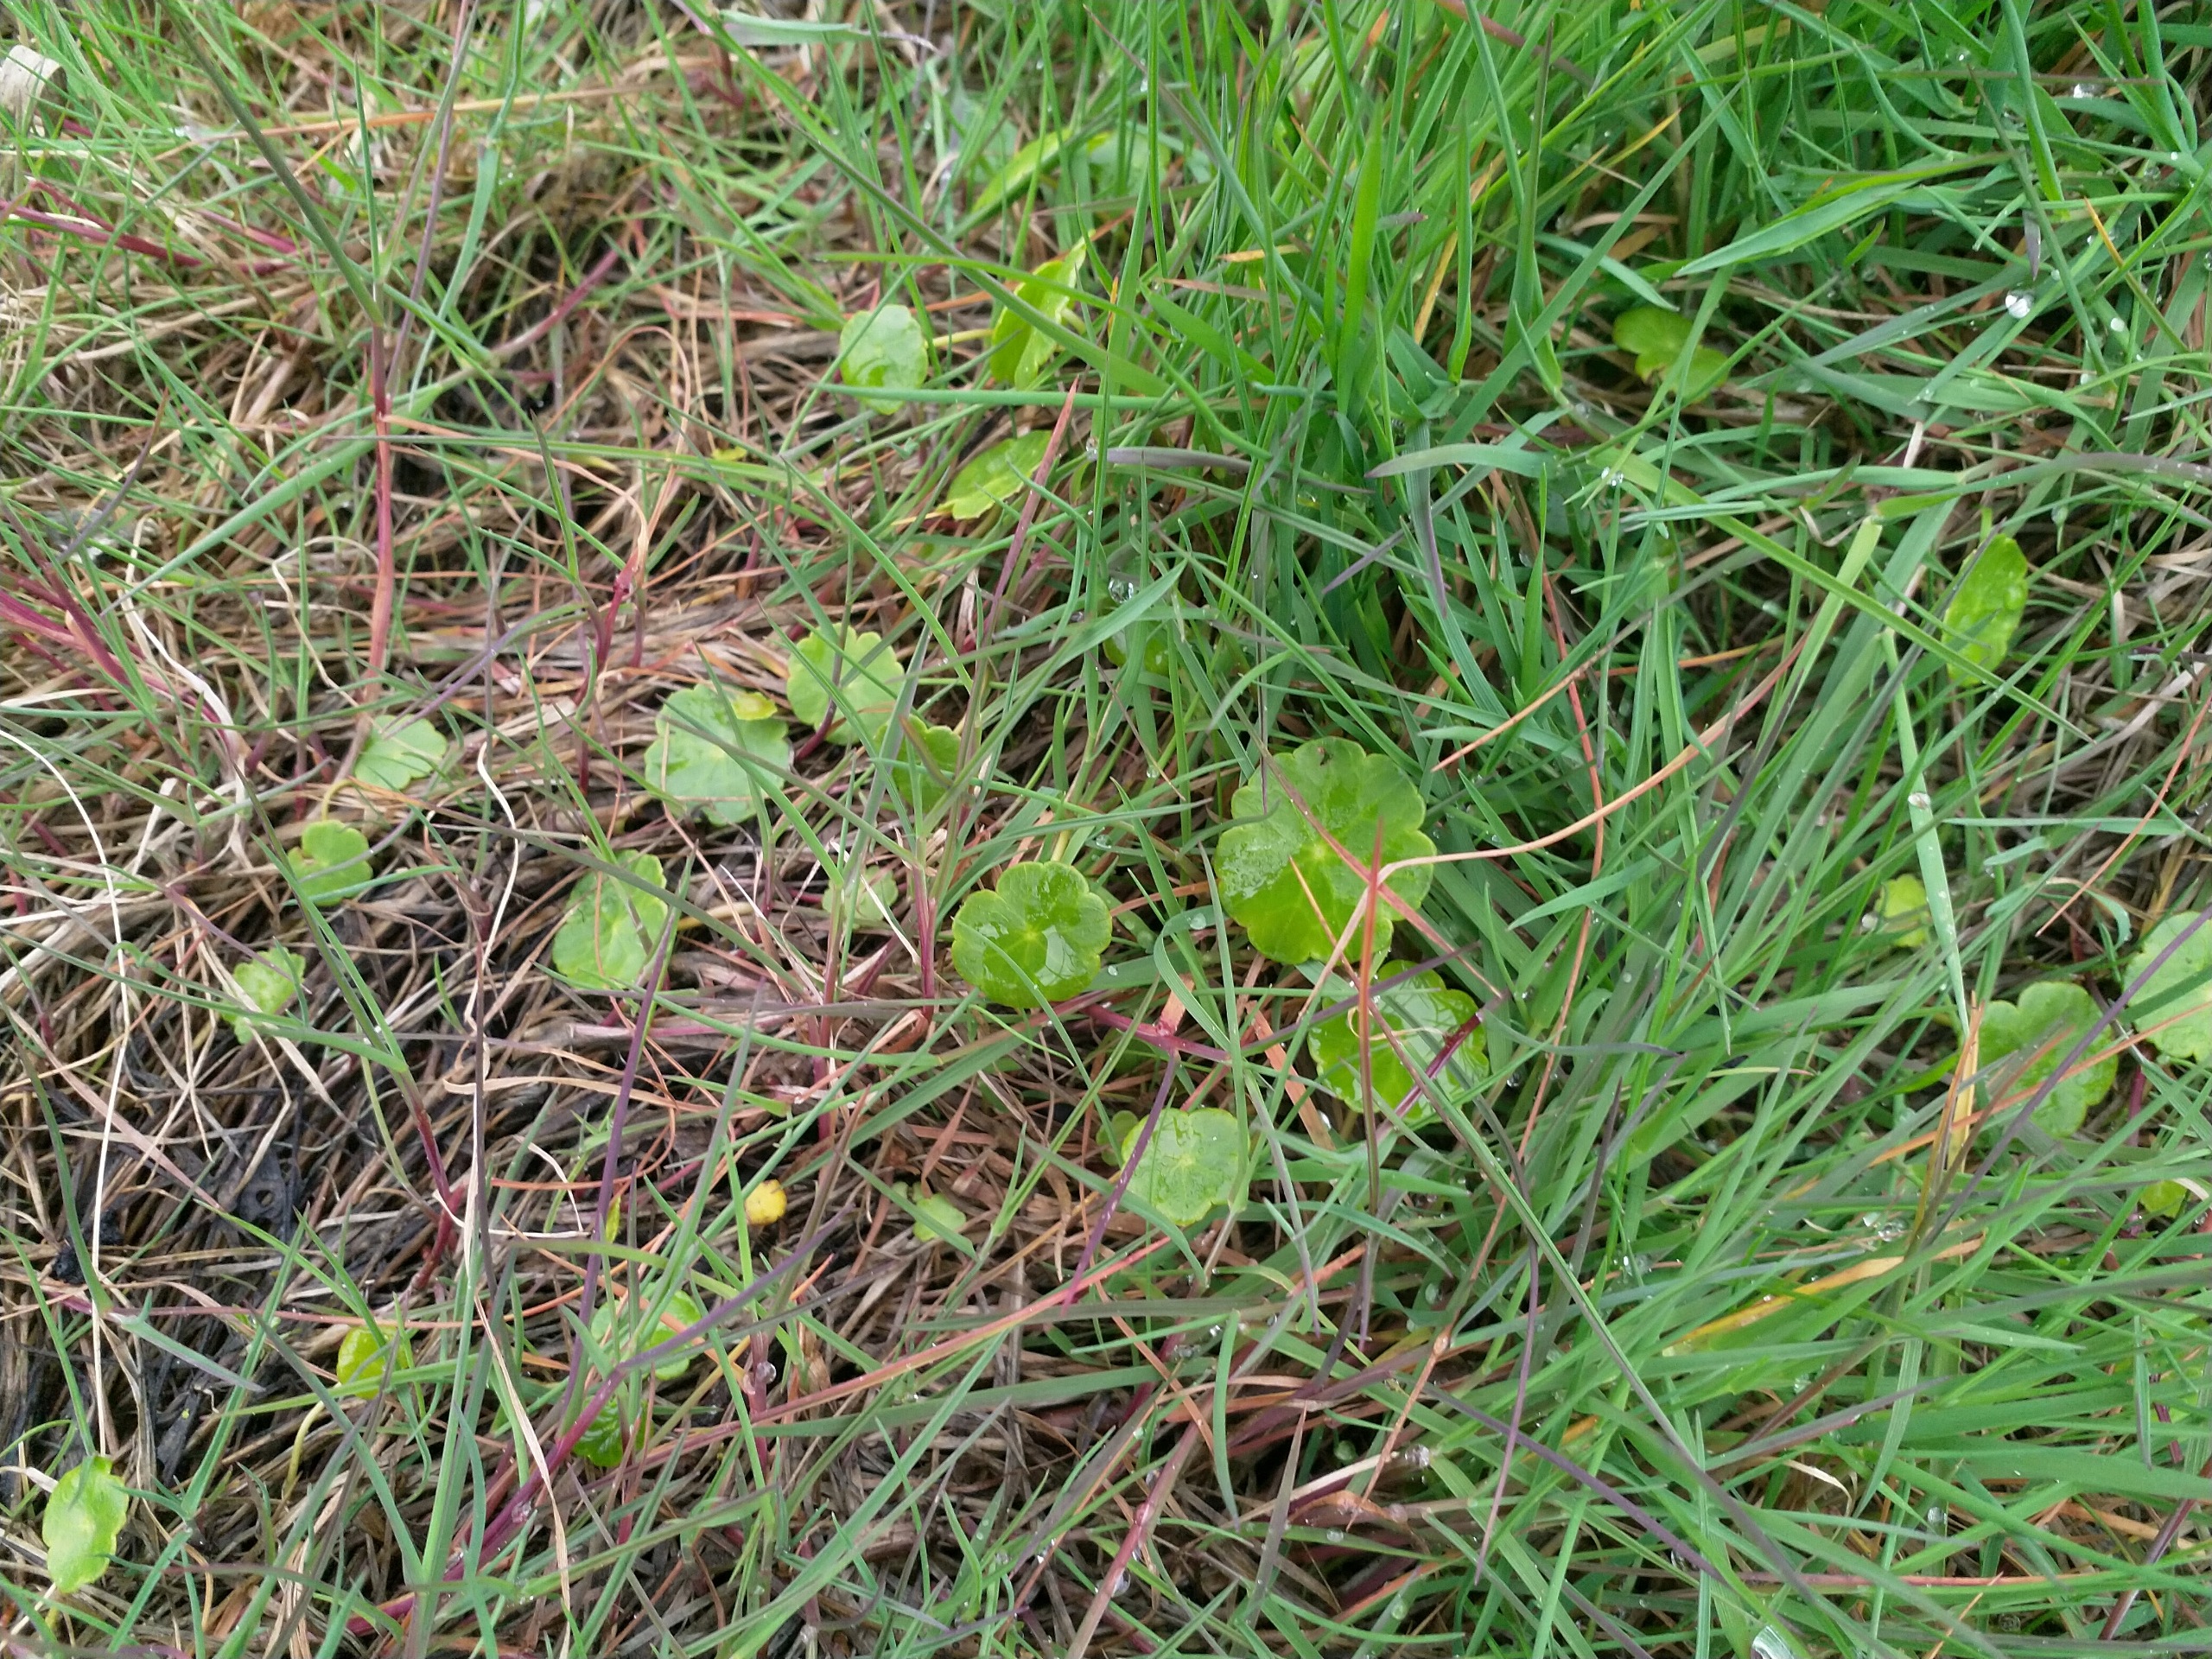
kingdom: Plantae
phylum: Tracheophyta
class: Magnoliopsida
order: Apiales
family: Araliaceae
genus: Hydrocotyle
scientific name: Hydrocotyle vulgaris
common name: Vandnavle
